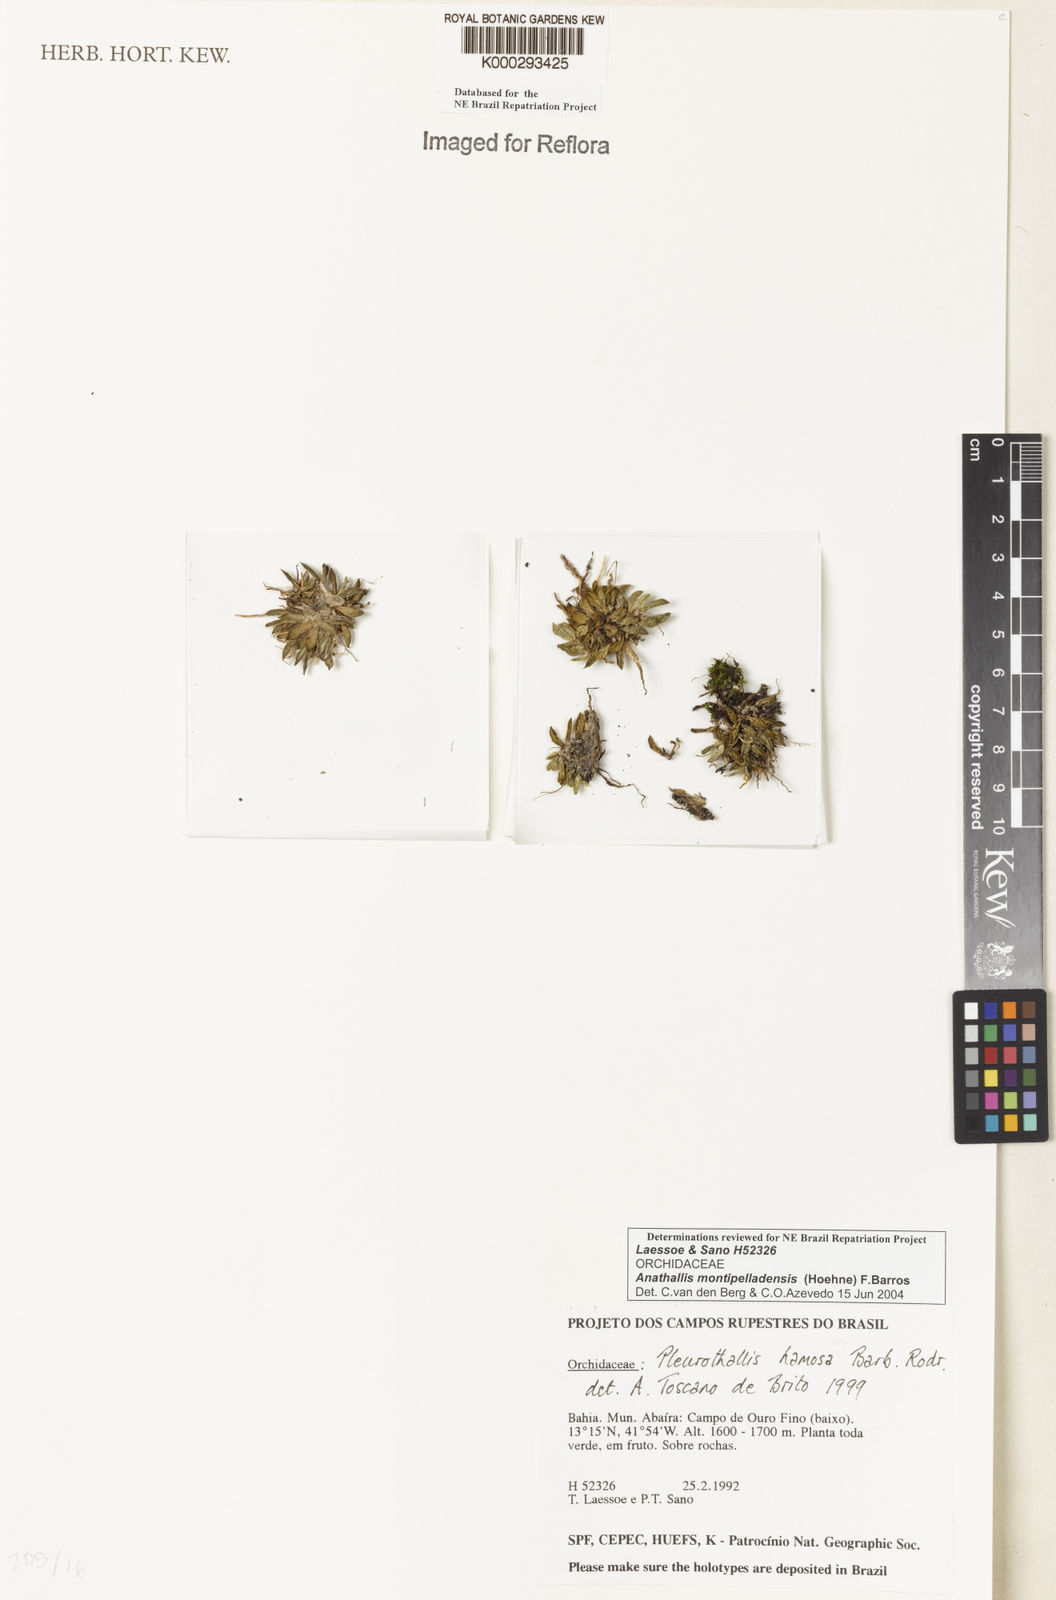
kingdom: Plantae
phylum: Tracheophyta
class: Liliopsida
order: Asparagales
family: Orchidaceae
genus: Anathallis
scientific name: Anathallis montipelladensis
